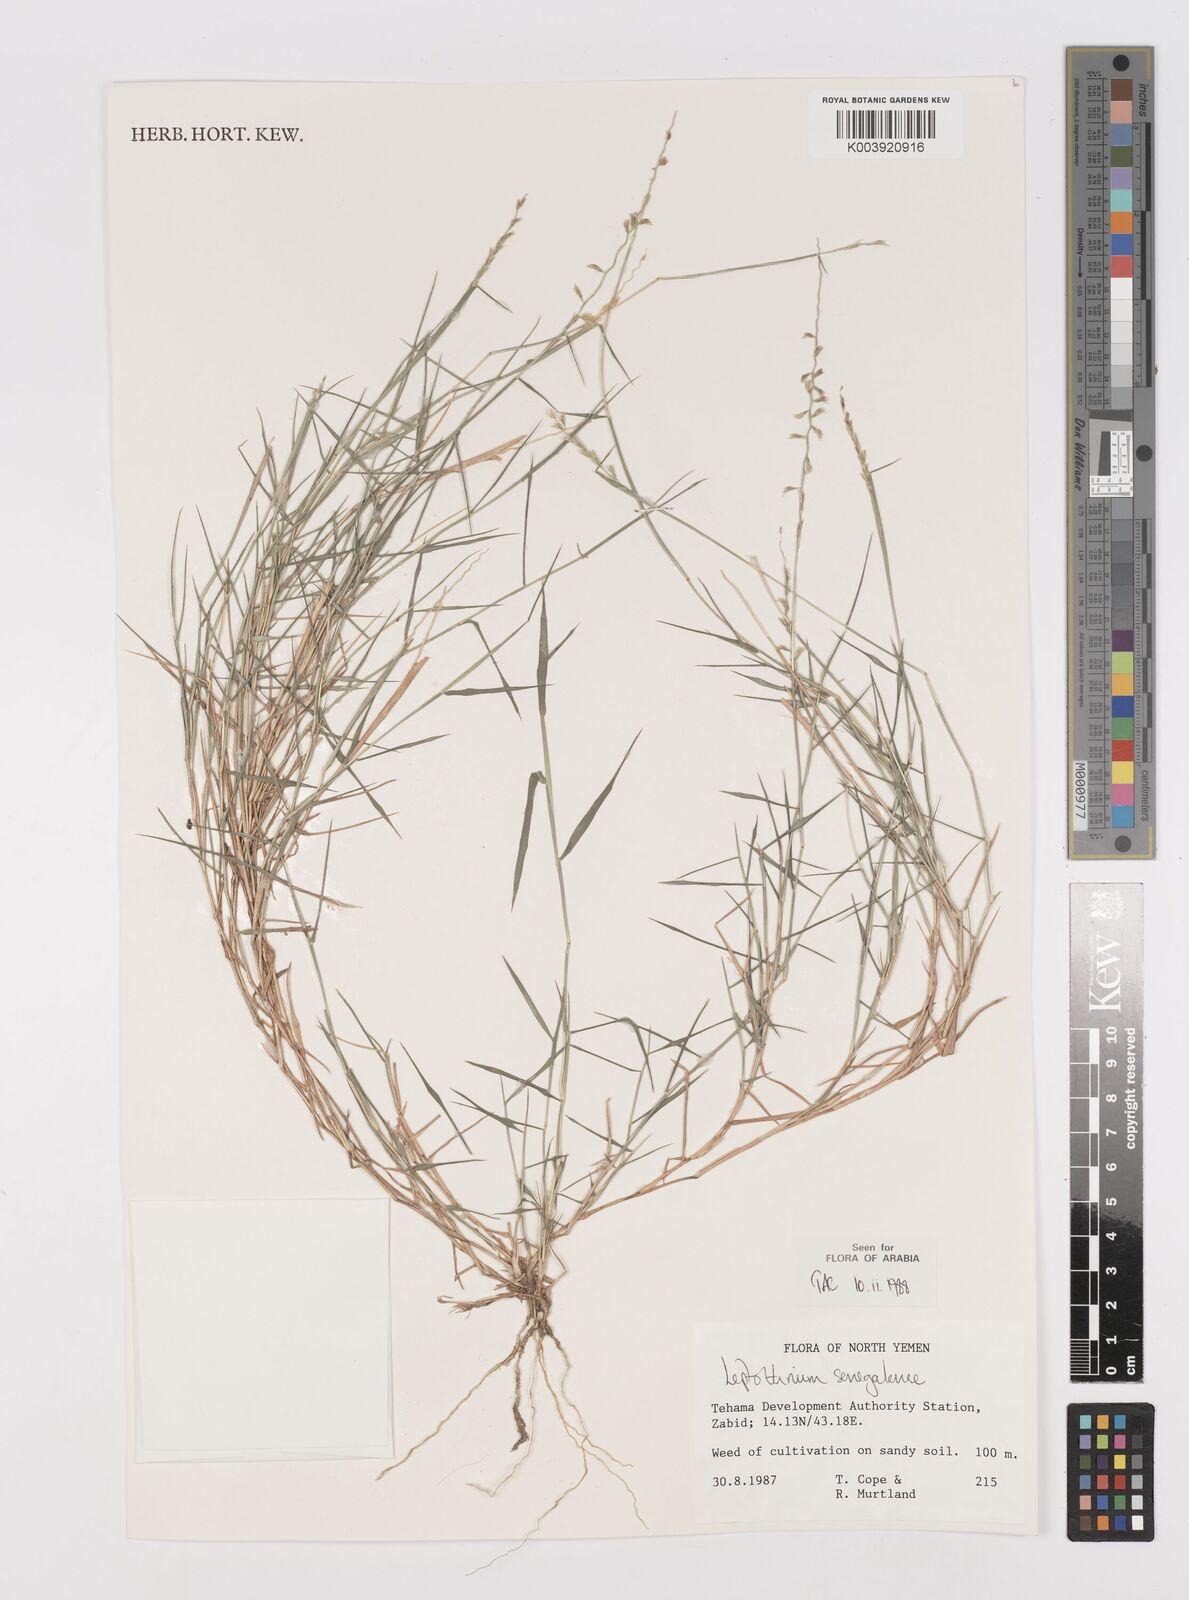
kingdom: Plantae
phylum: Tracheophyta
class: Liliopsida
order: Poales
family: Poaceae
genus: Leptothrium
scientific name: Leptothrium senegalense
